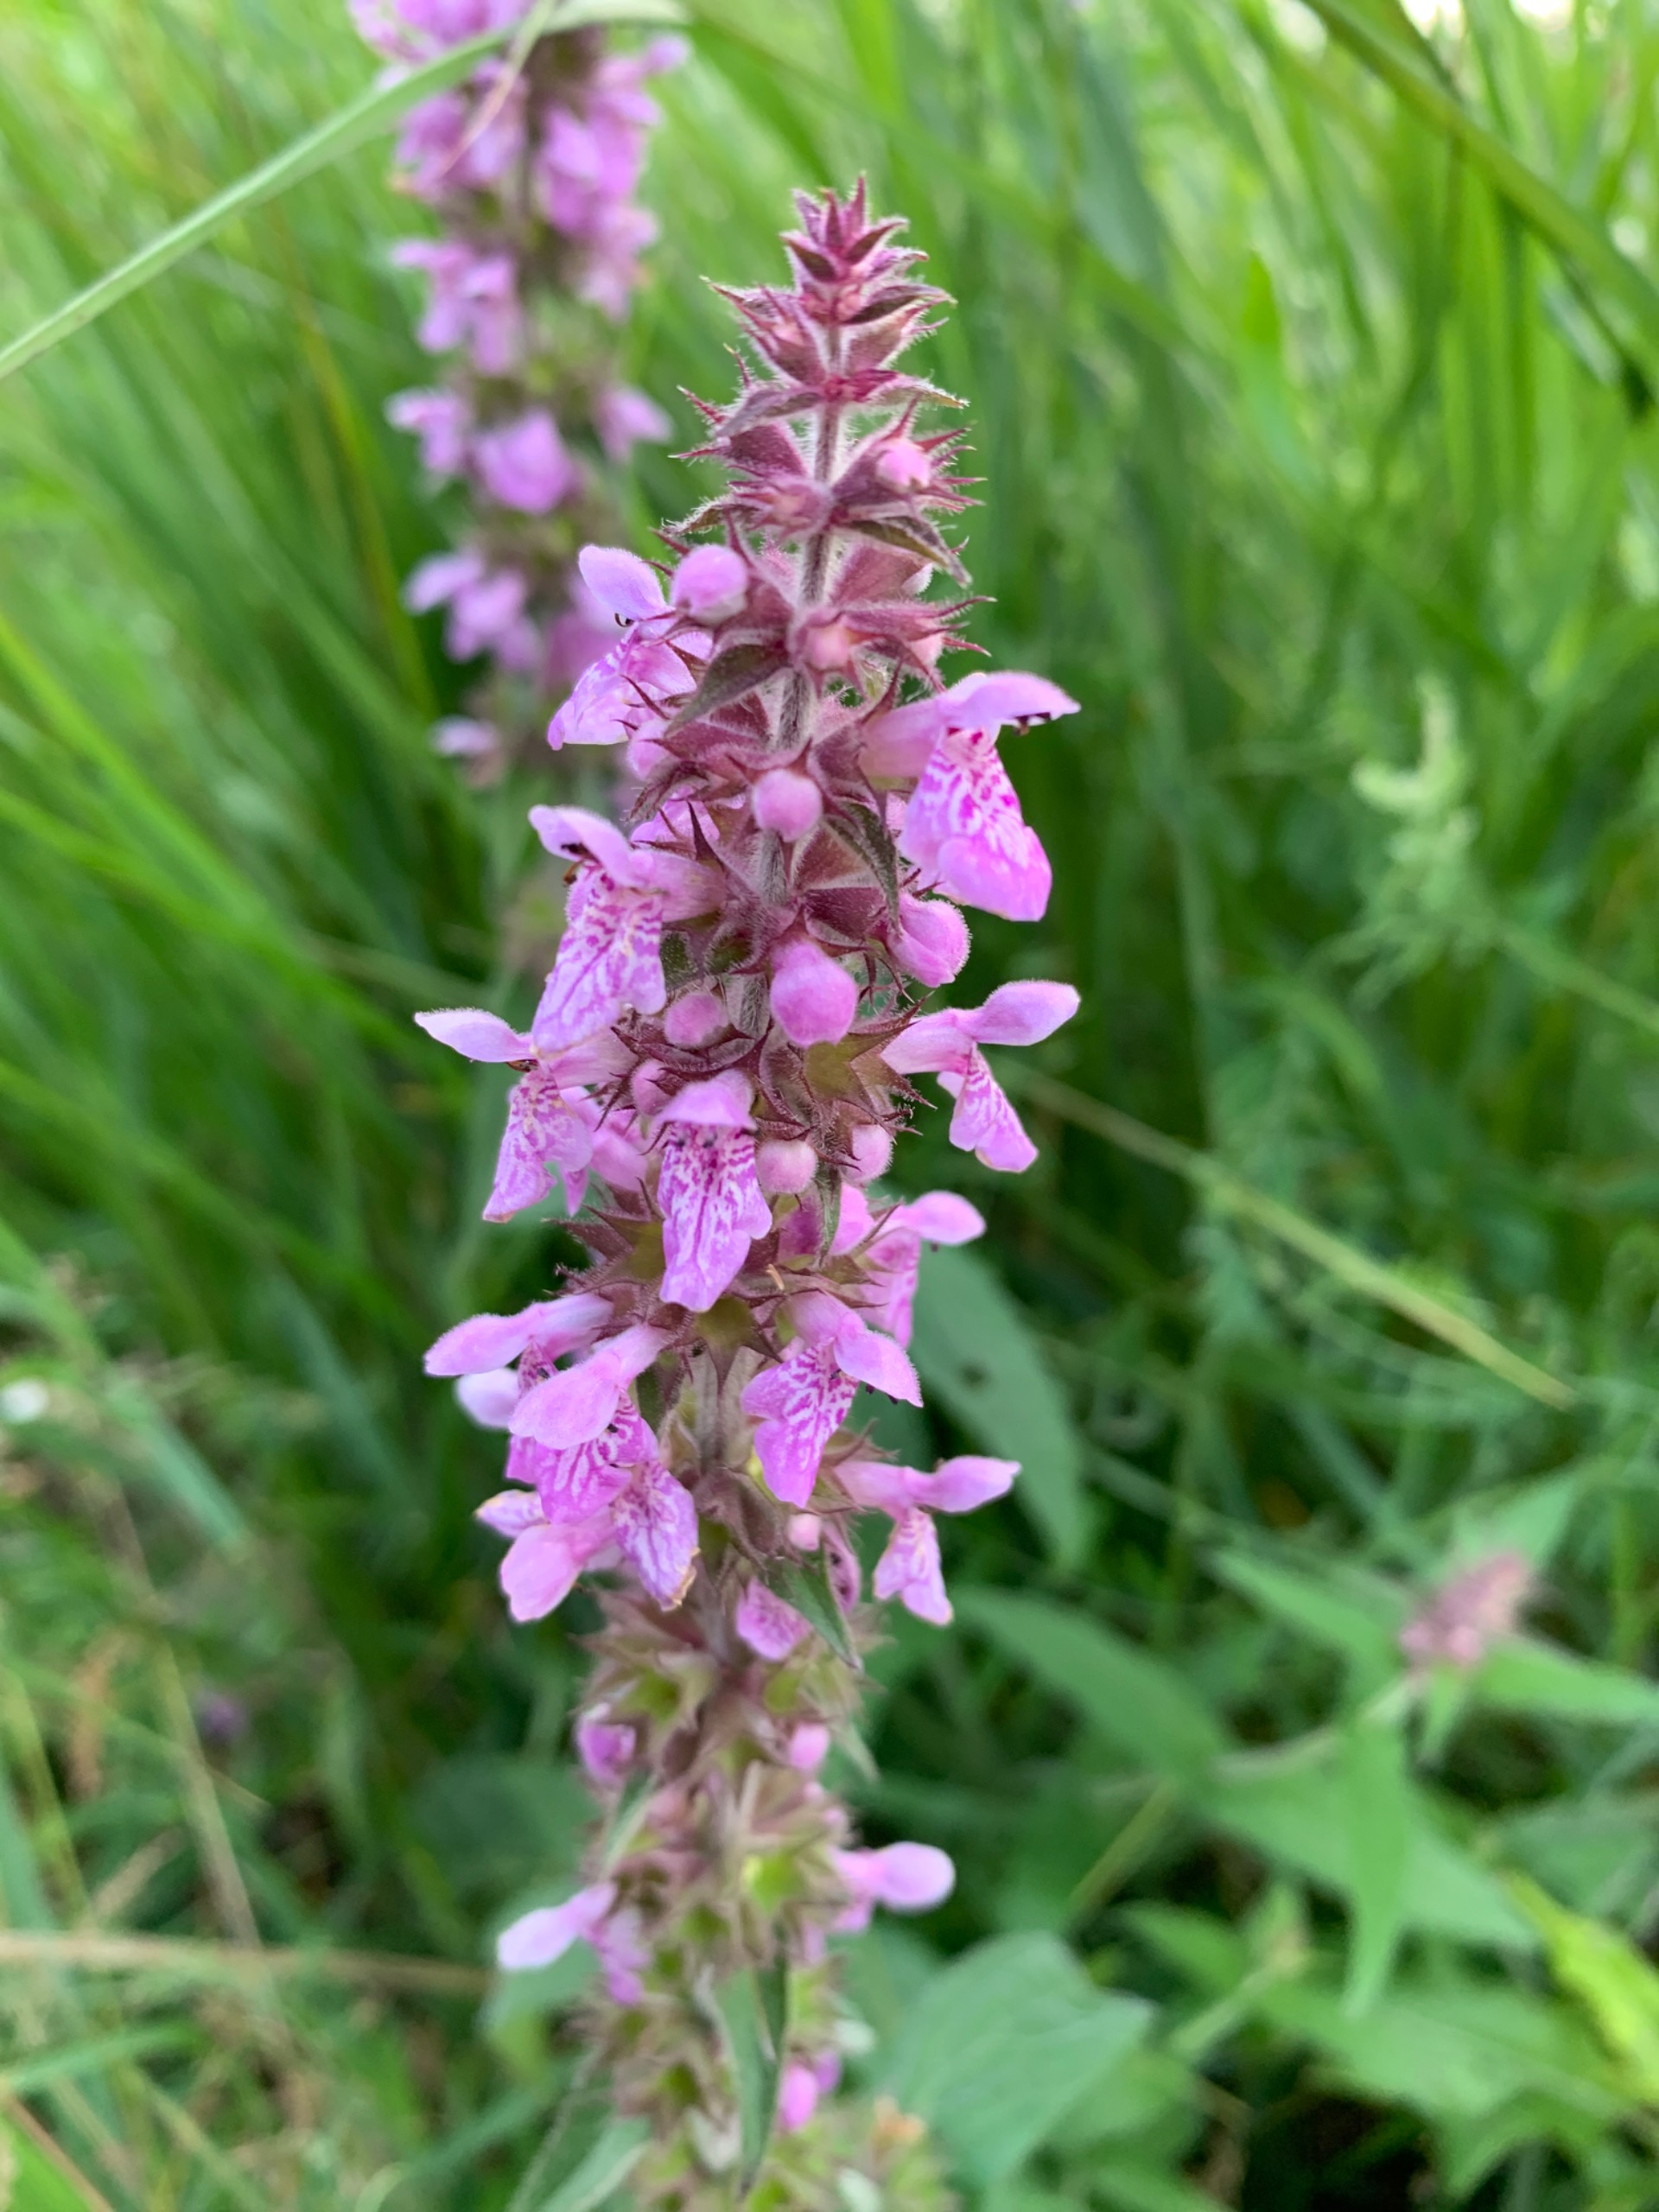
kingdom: Plantae
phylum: Tracheophyta
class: Magnoliopsida
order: Lamiales
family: Lamiaceae
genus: Stachys
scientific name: Stachys palustris
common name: Kær-galtetand
